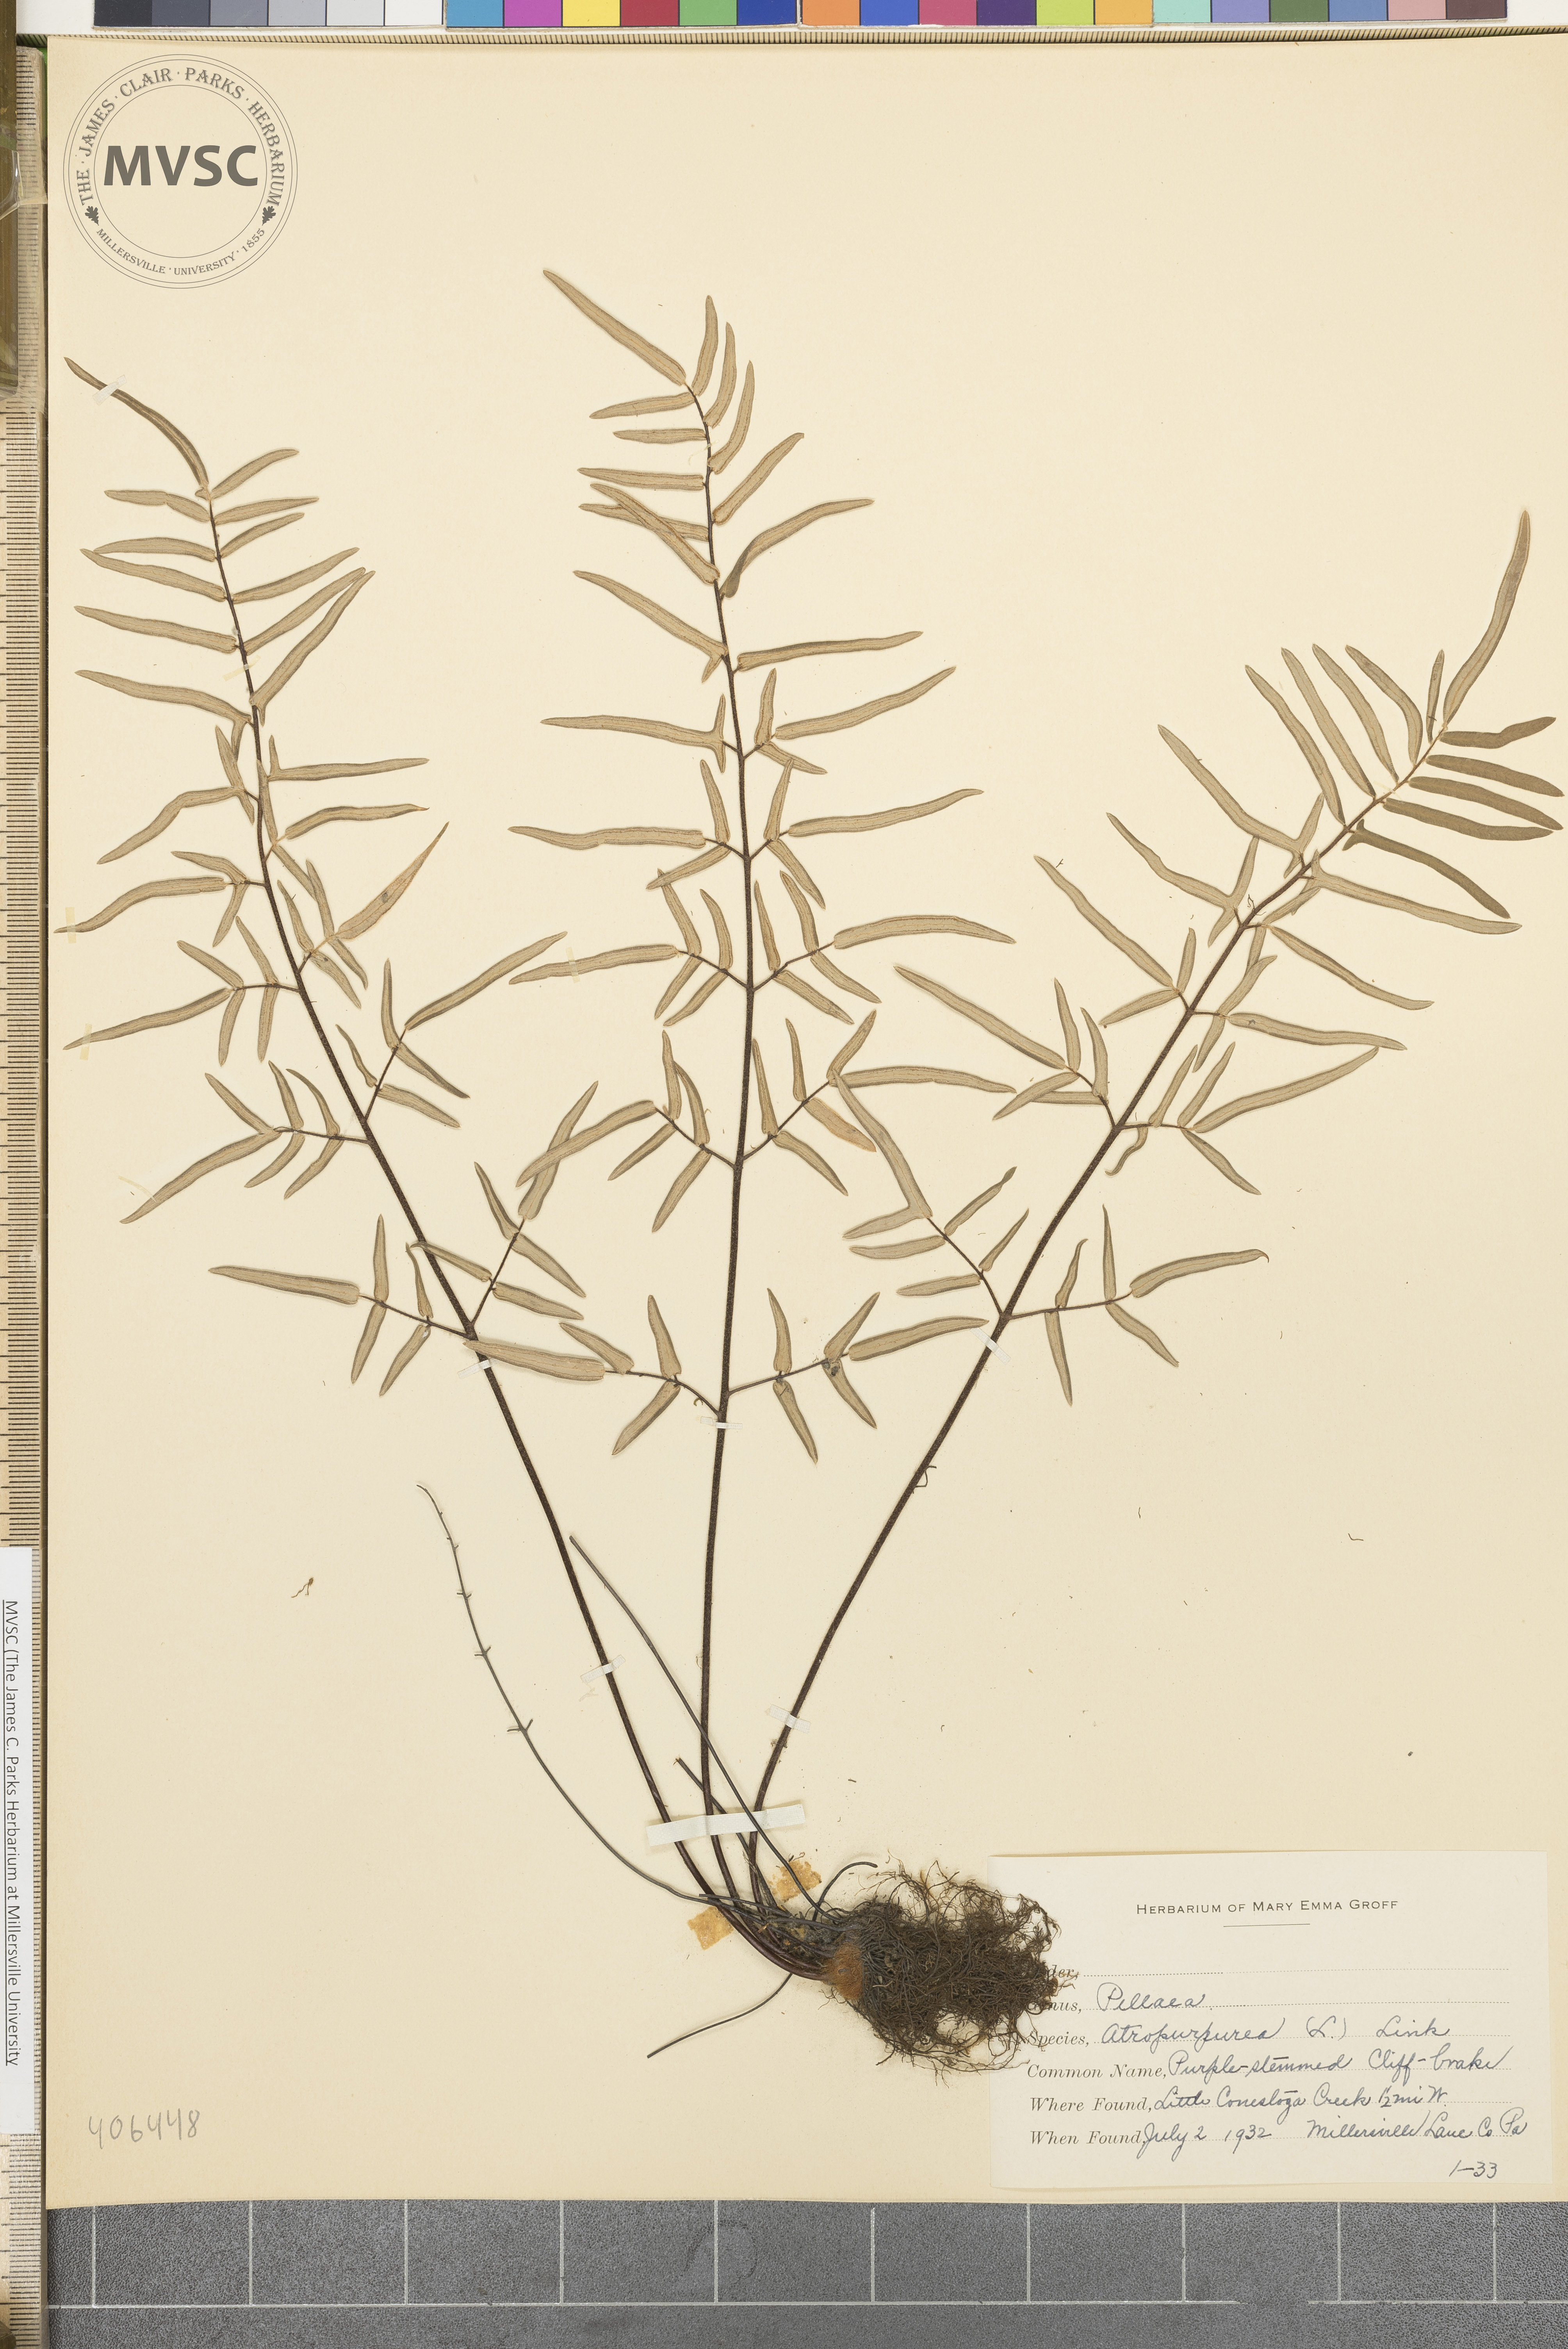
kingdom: Plantae
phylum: Tracheophyta
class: Polypodiopsida
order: Polypodiales
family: Pteridaceae
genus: Pellaea
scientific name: Pellaea atropurpurea
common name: Hairy cliffbrake
